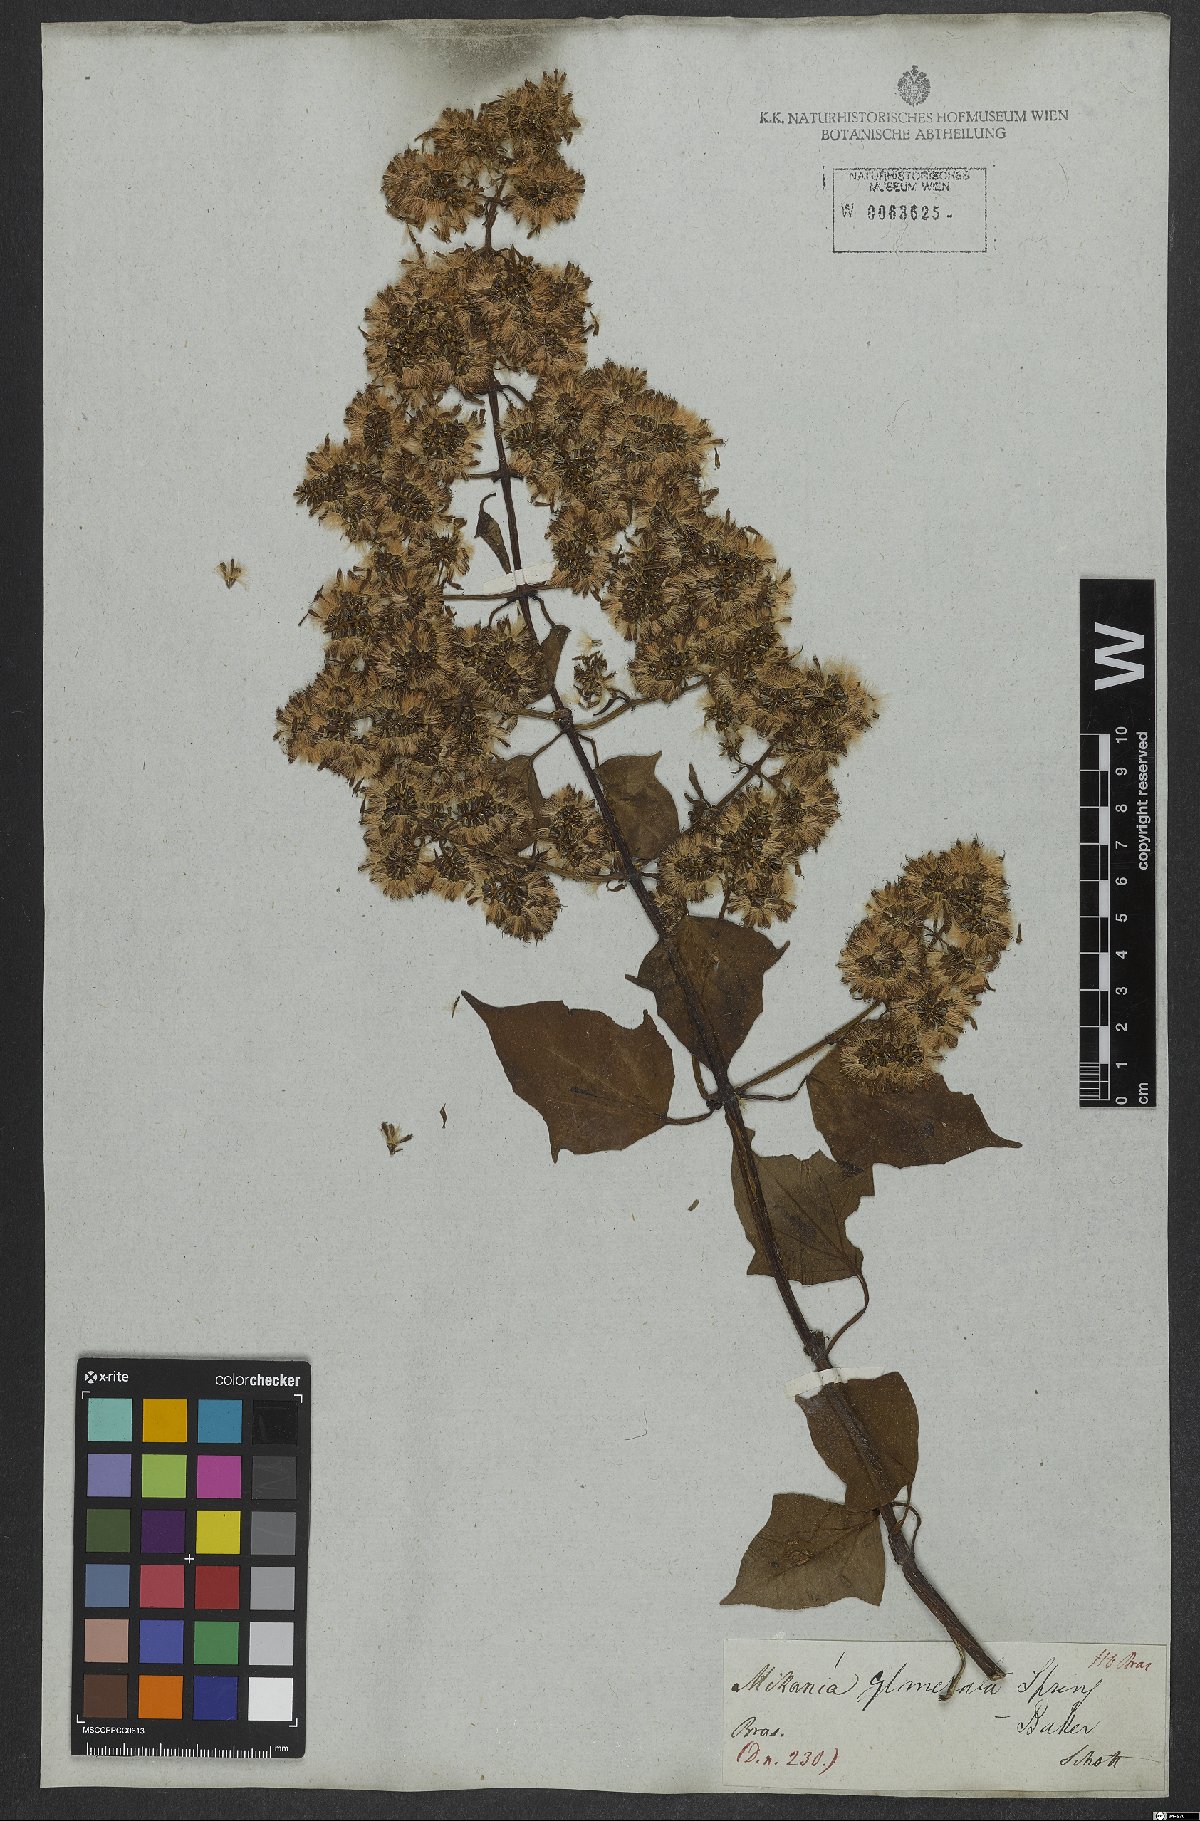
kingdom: Plantae
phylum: Tracheophyta
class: Magnoliopsida
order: Asterales
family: Asteraceae
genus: Mikania
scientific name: Mikania glomerata
